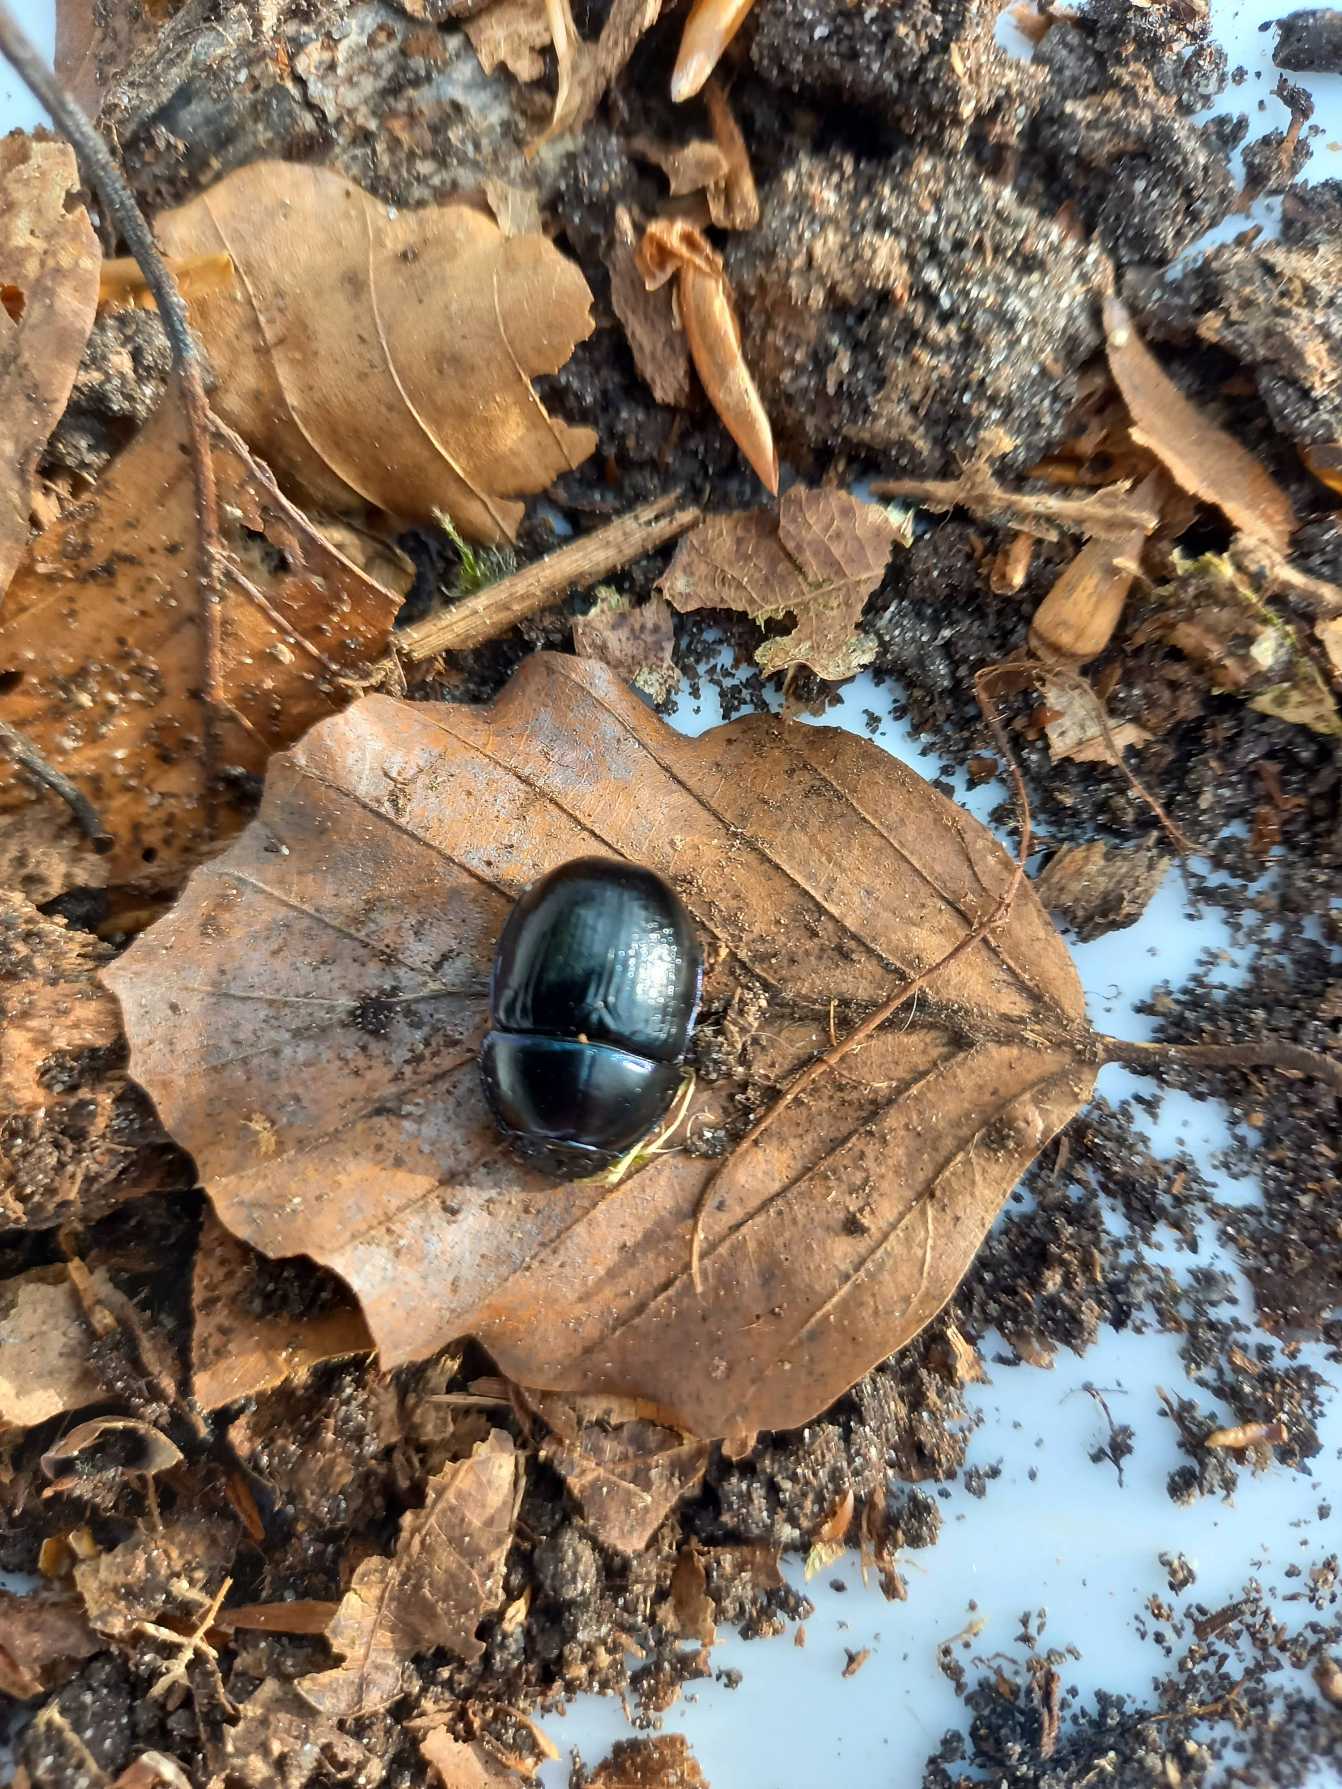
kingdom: Animalia
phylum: Arthropoda
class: Insecta
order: Coleoptera
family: Geotrupidae
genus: Anoplotrupes
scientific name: Anoplotrupes stercorosus
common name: Skovskarnbasse
